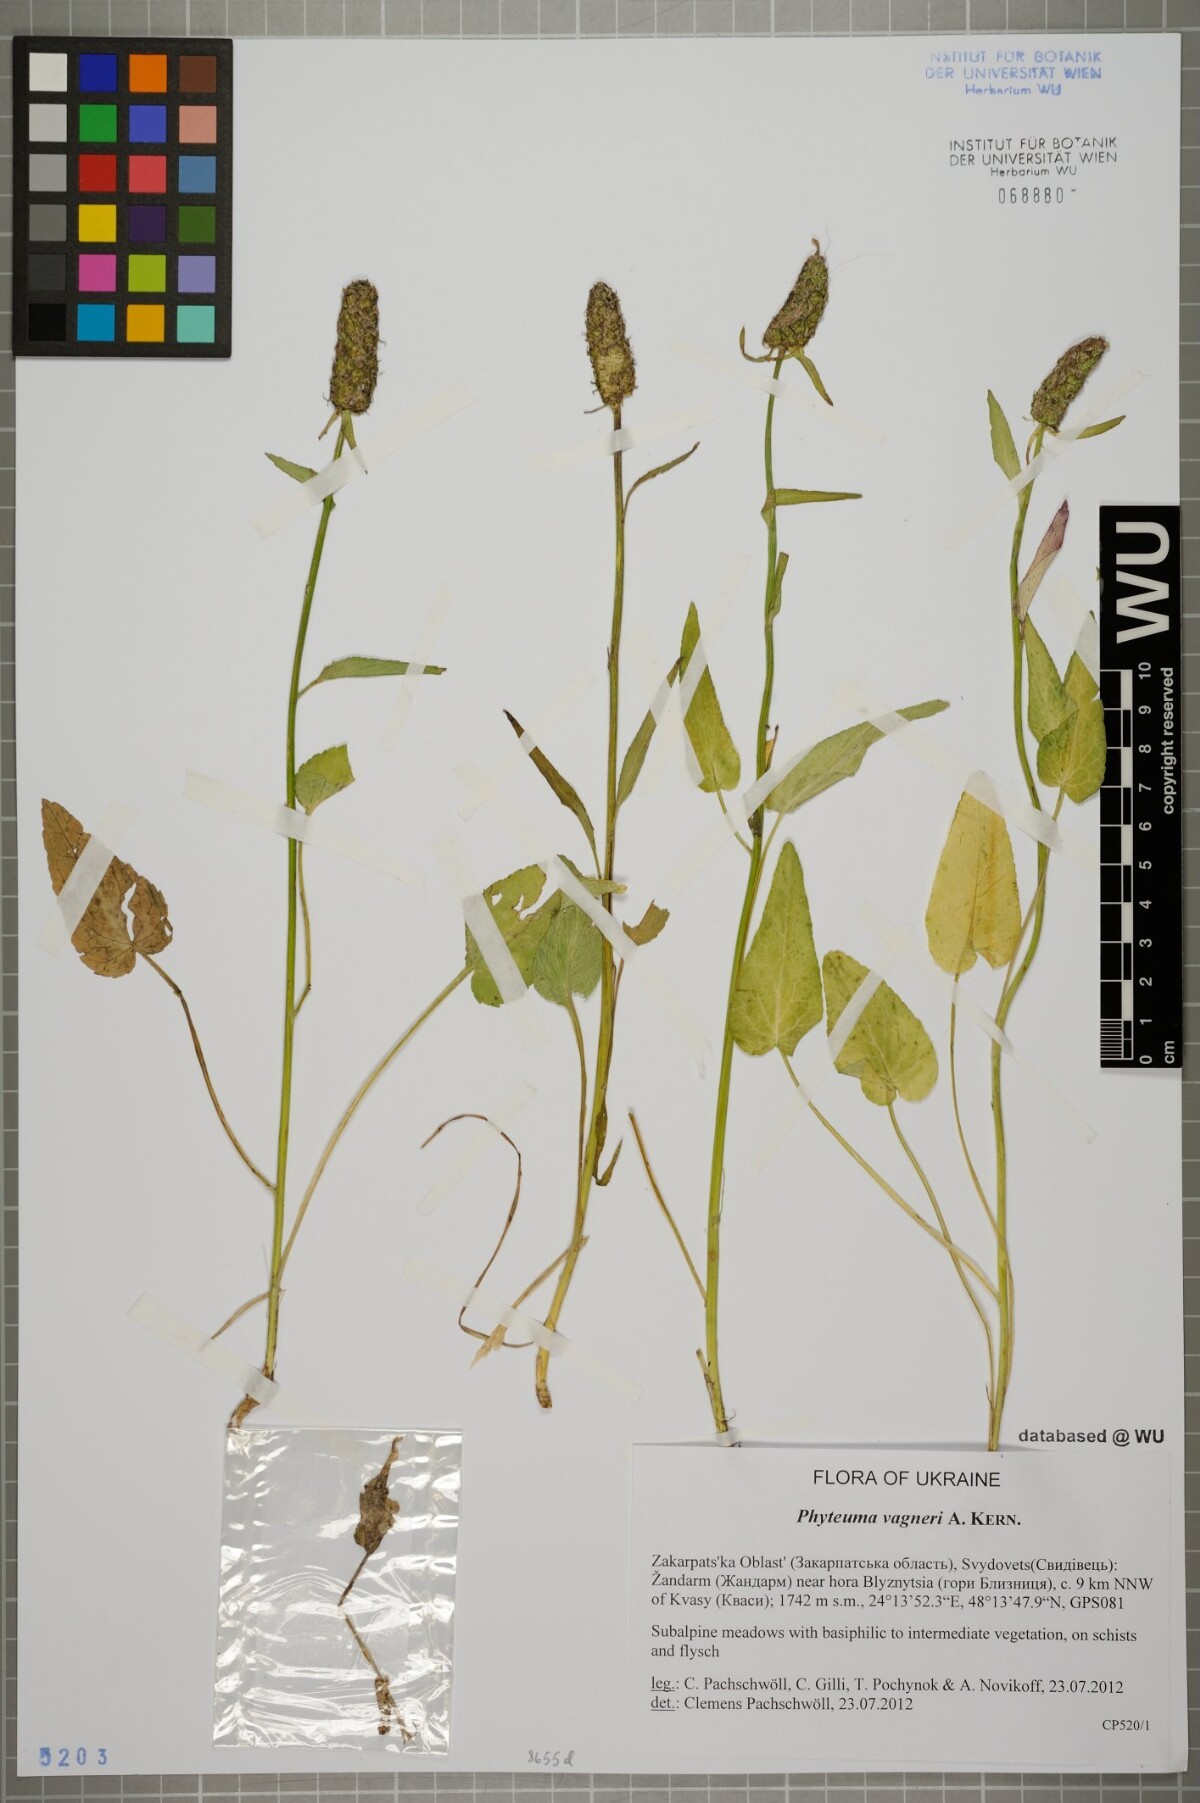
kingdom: Plantae
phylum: Tracheophyta
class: Magnoliopsida
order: Asterales
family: Campanulaceae
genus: Phyteuma
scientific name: Phyteuma vagneri
